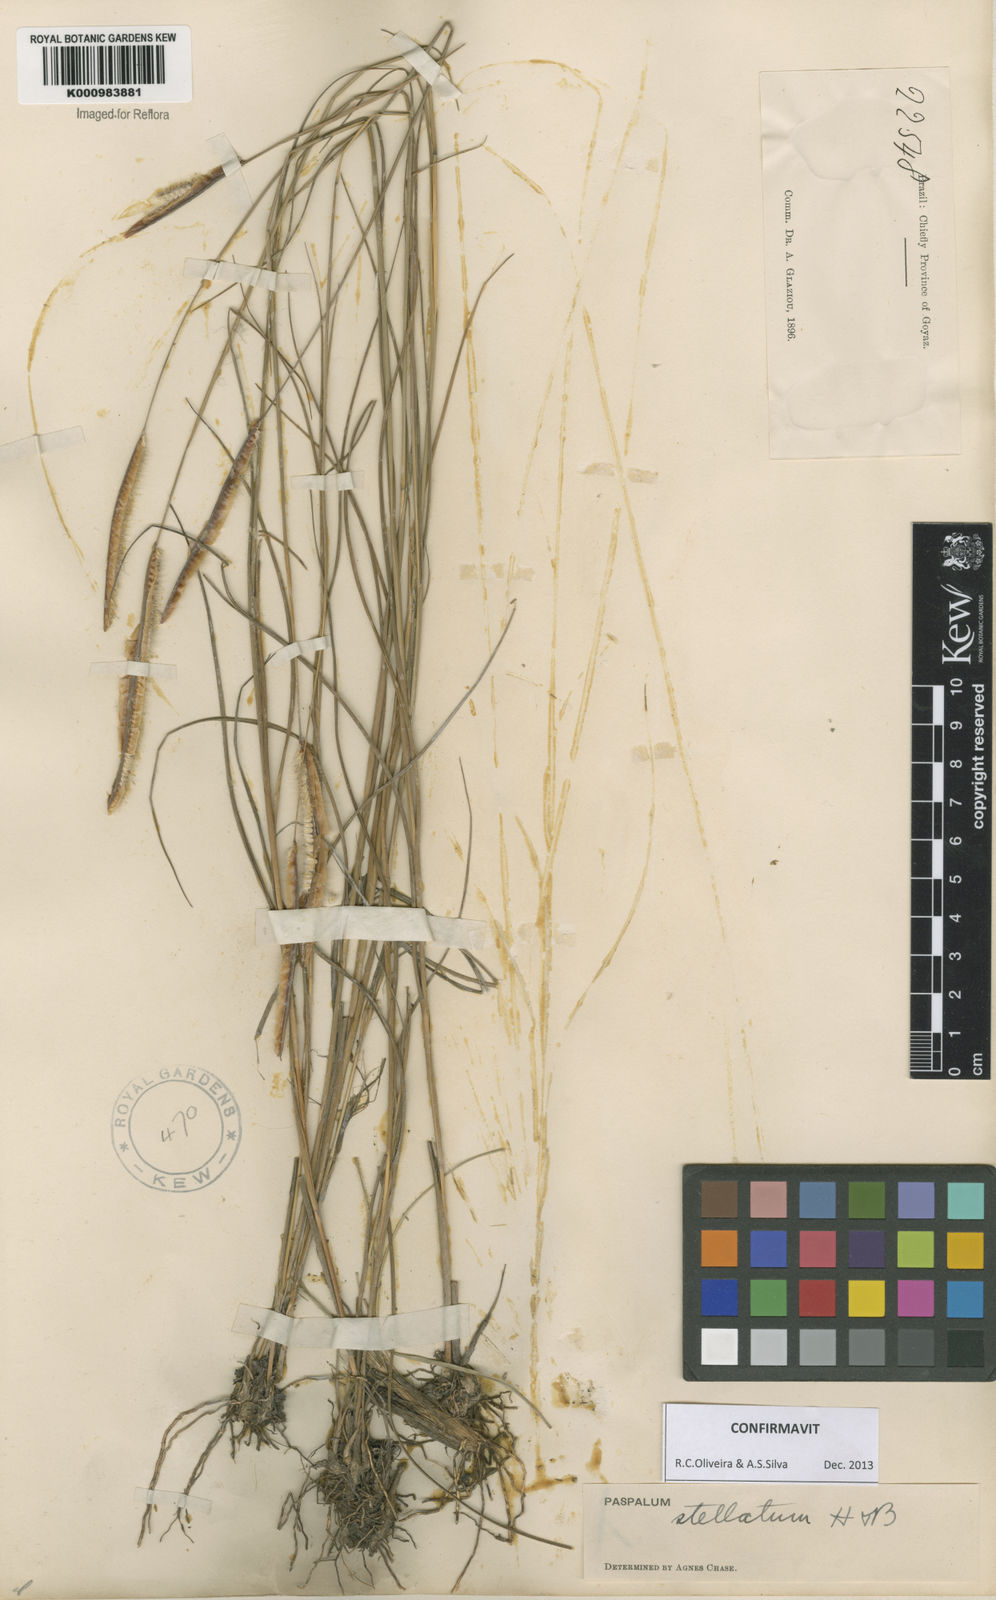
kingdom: Plantae
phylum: Tracheophyta
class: Liliopsida
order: Poales
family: Poaceae
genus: Paspalum
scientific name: Paspalum
